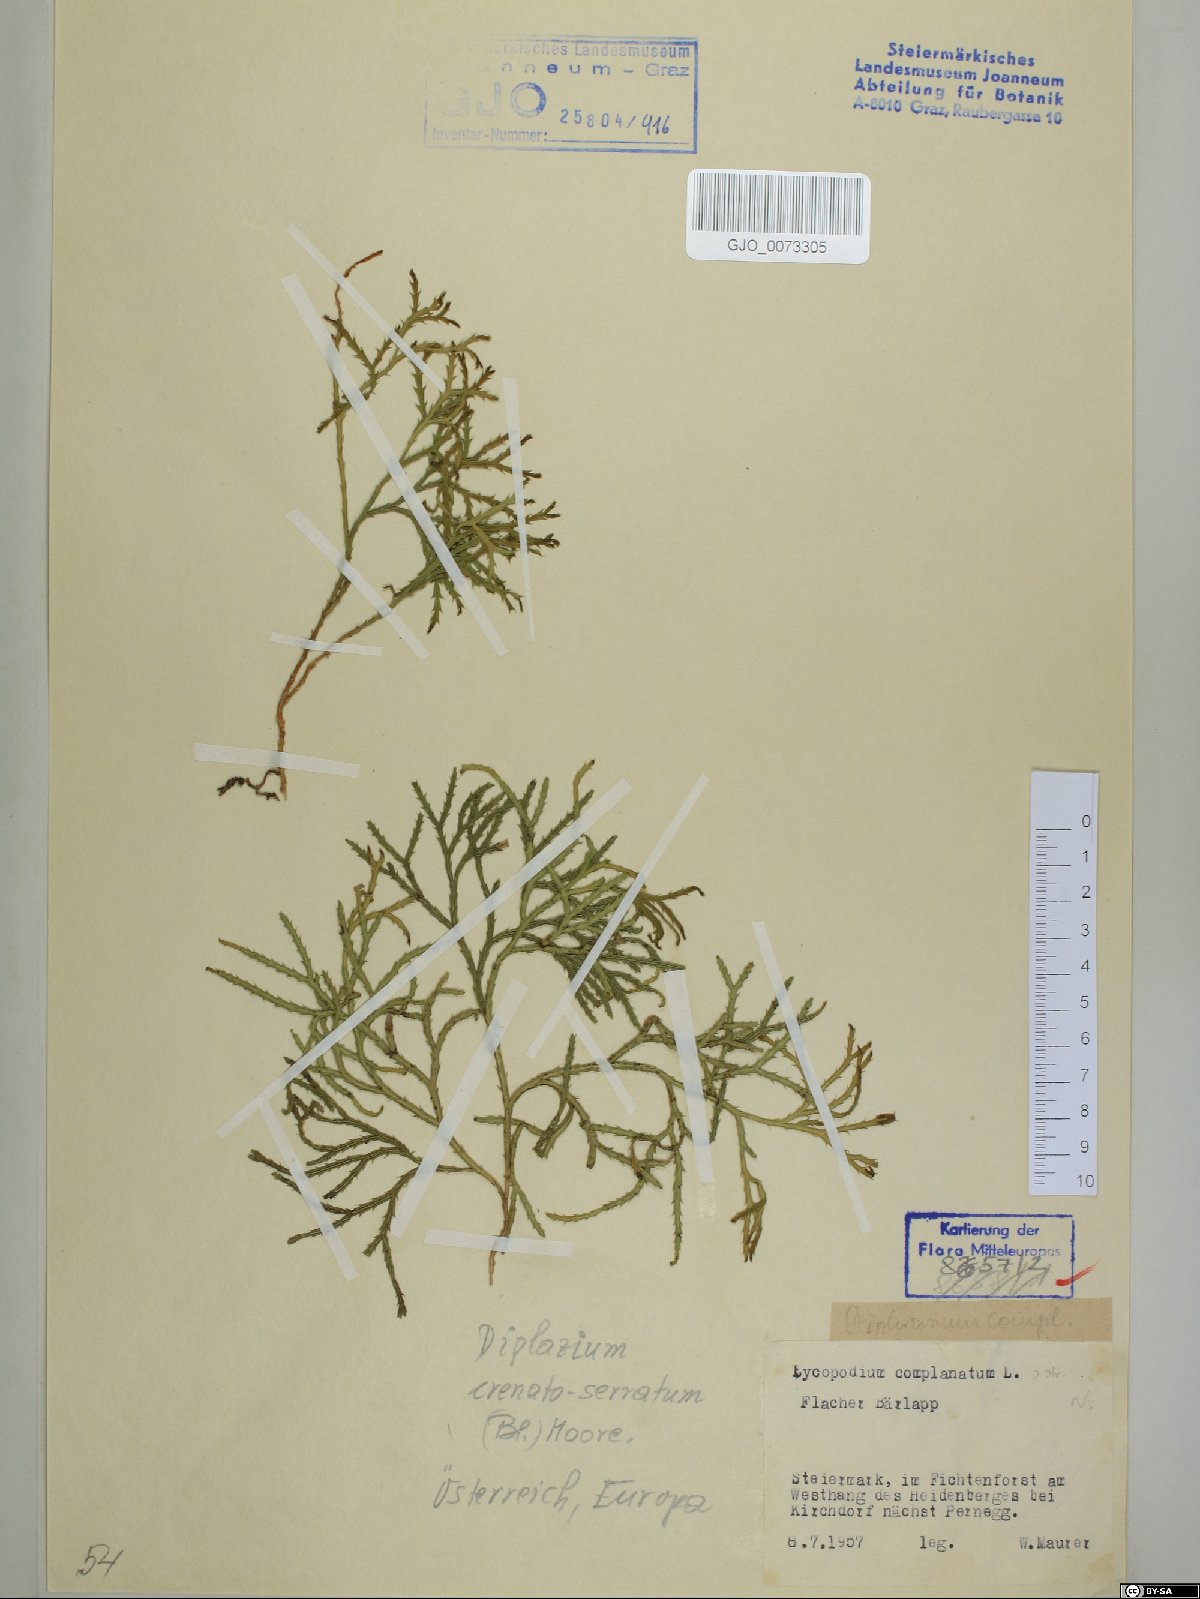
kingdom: Plantae
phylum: Tracheophyta
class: Lycopodiopsida
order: Lycopodiales
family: Lycopodiaceae
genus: Diphasiastrum
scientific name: Diphasiastrum complanatum
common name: Northern running-pine
